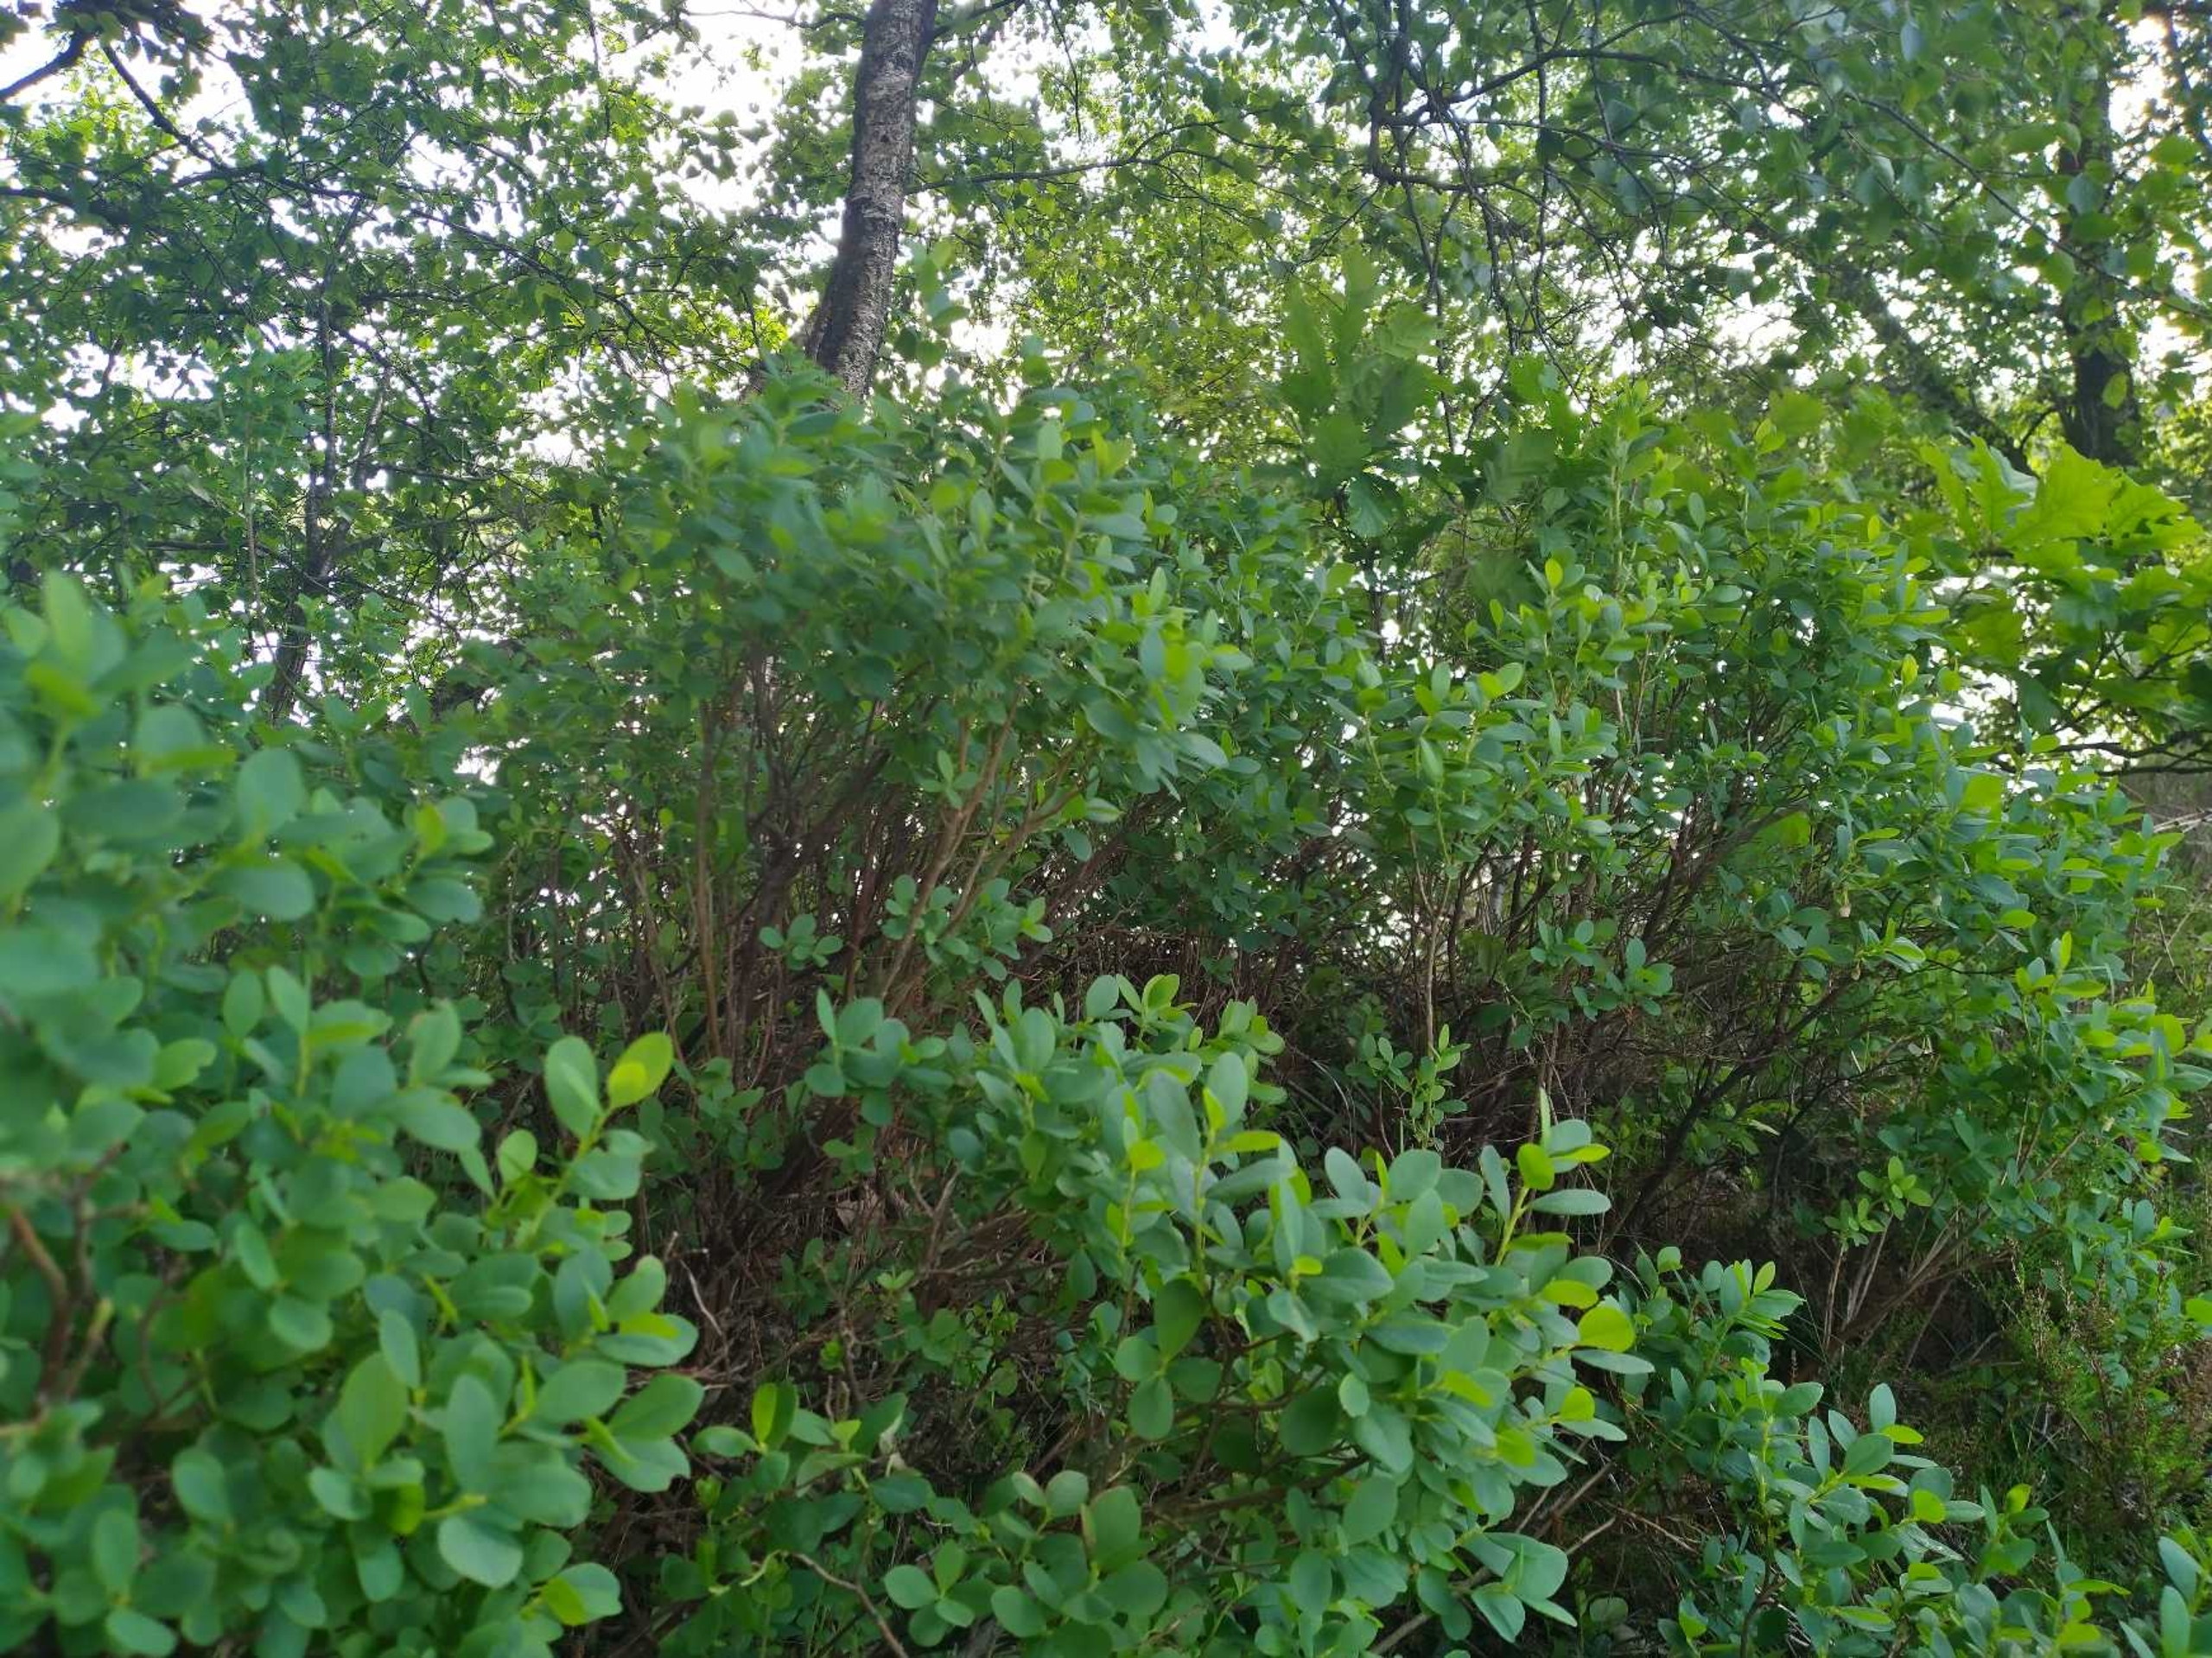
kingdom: Plantae
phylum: Tracheophyta
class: Magnoliopsida
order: Ericales
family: Ericaceae
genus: Vaccinium
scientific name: Vaccinium uliginosum
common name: Mose-bølle
